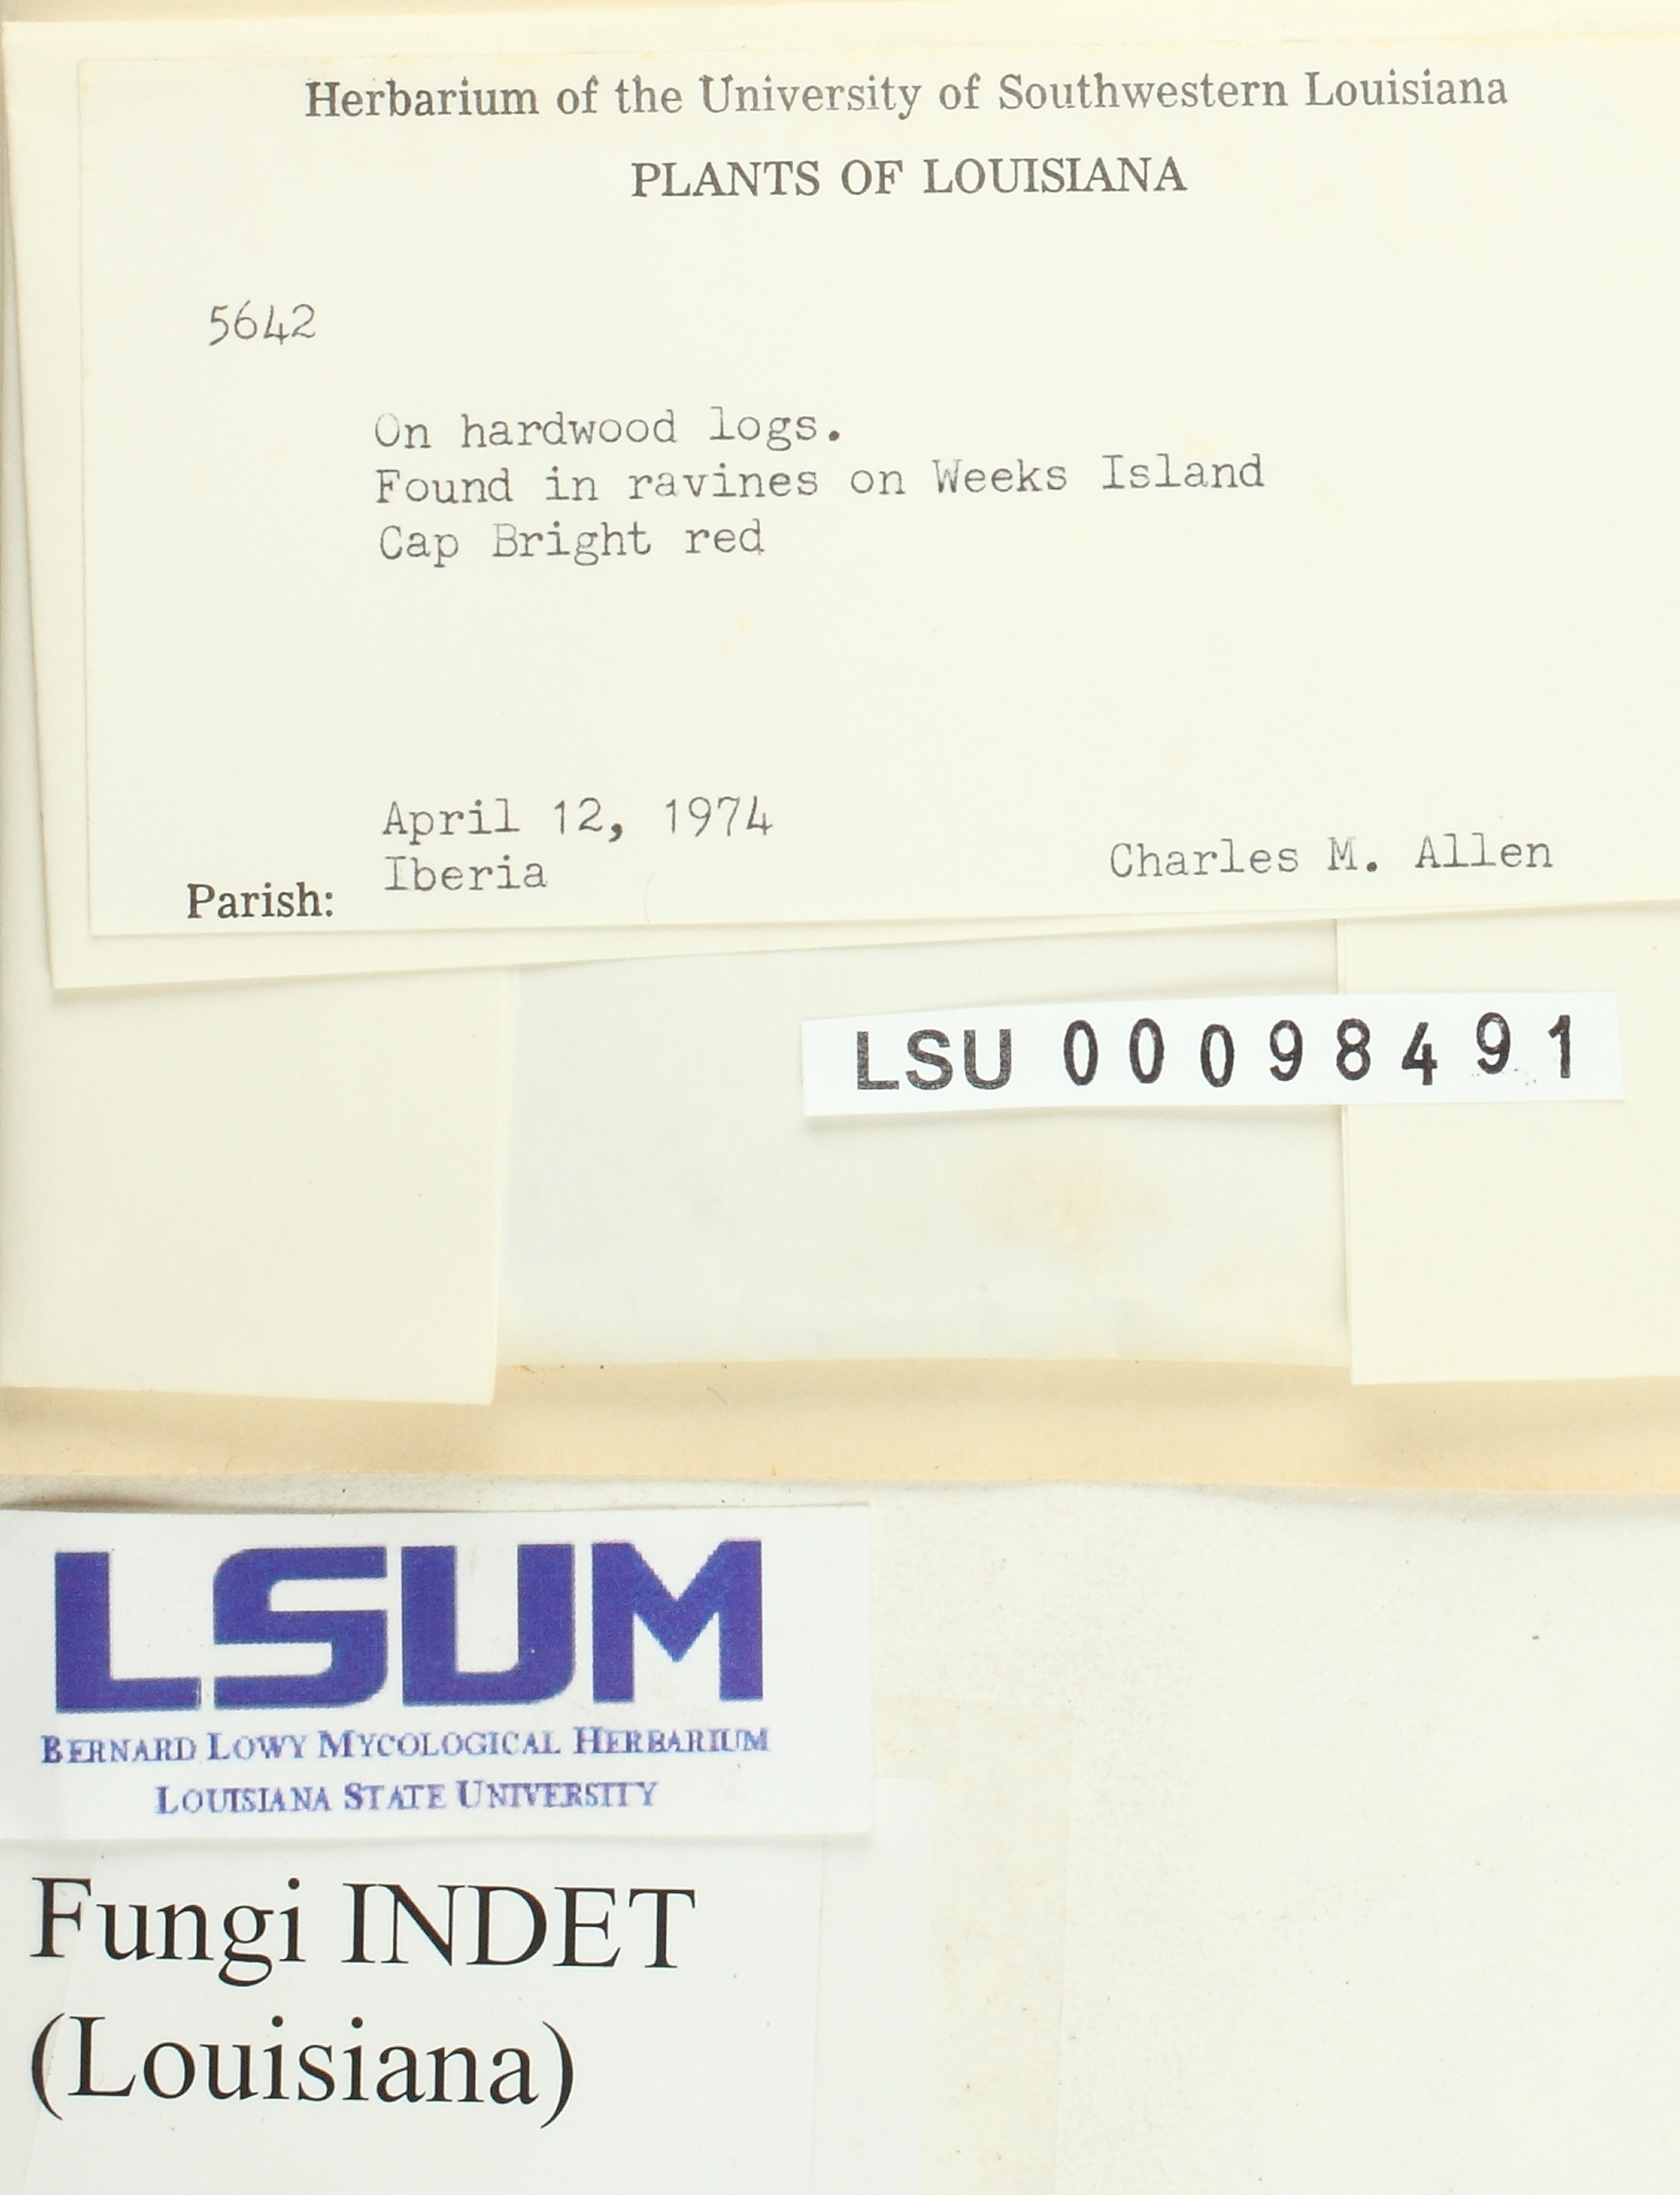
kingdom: Fungi
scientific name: Fungi
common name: Fungi
